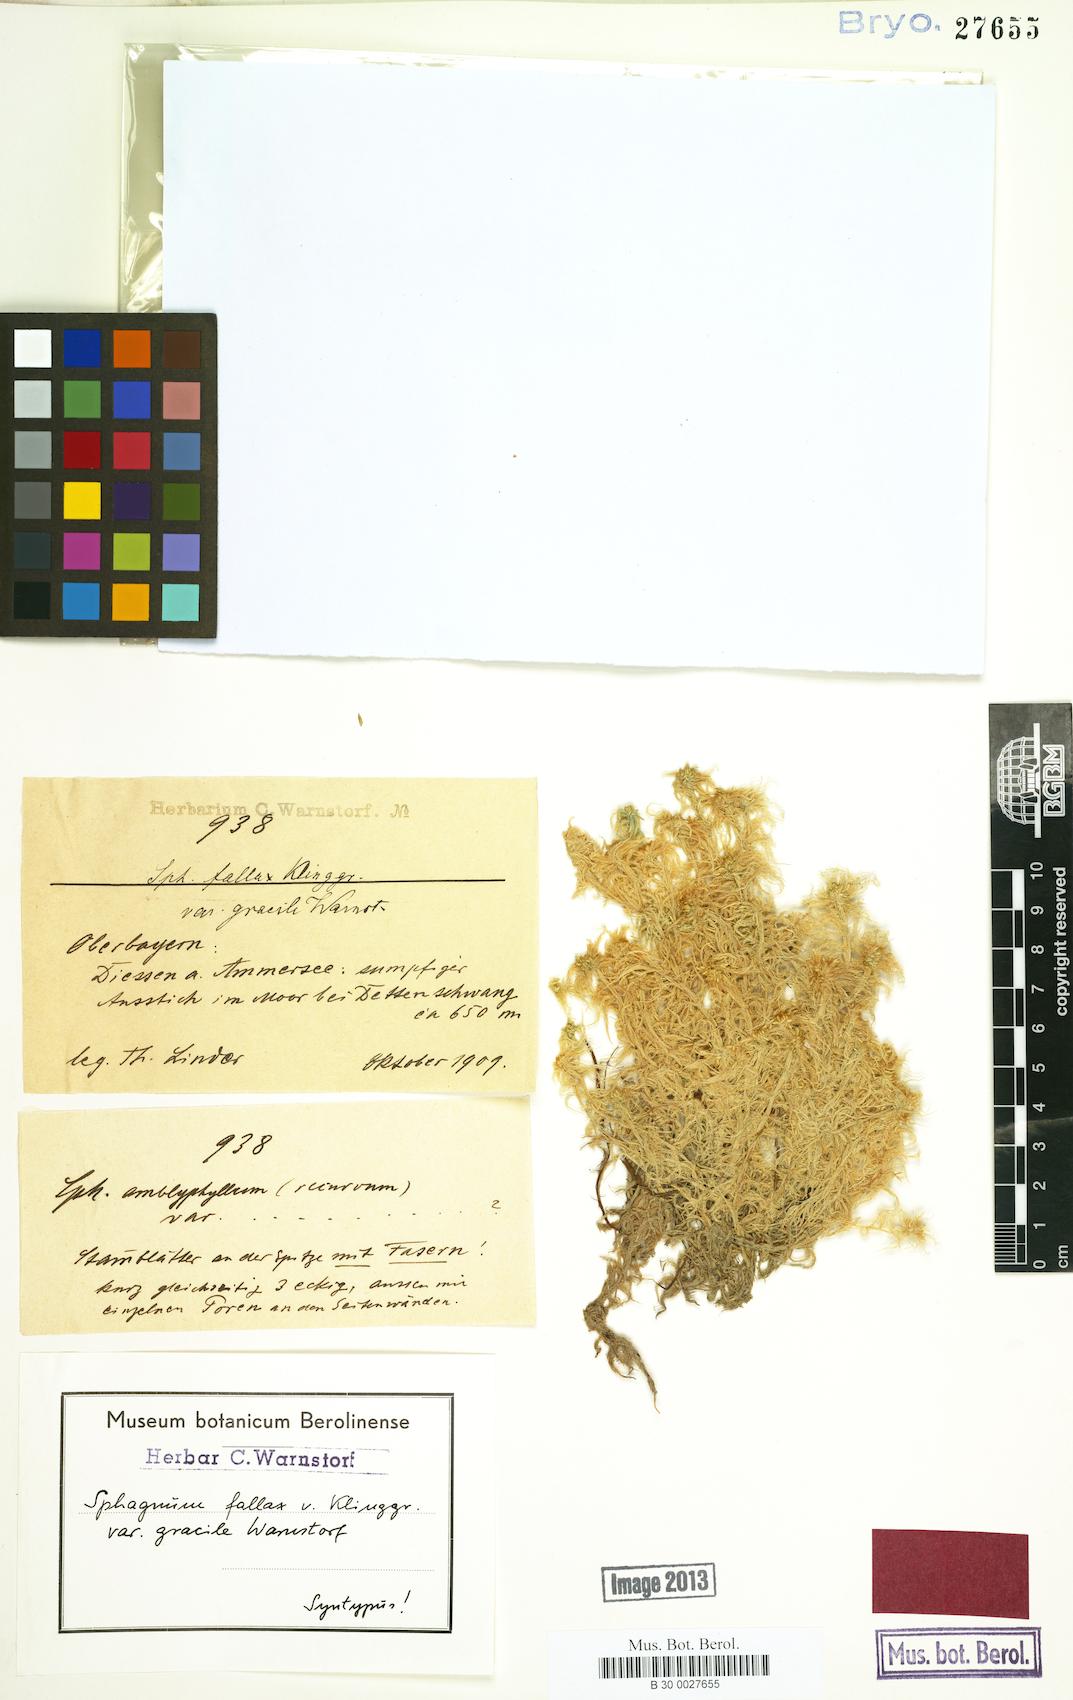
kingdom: Plantae
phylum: Bryophyta
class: Sphagnopsida
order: Sphagnales
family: Sphagnaceae
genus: Sphagnum
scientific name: Sphagnum fallax
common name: Flat-top peat moss
